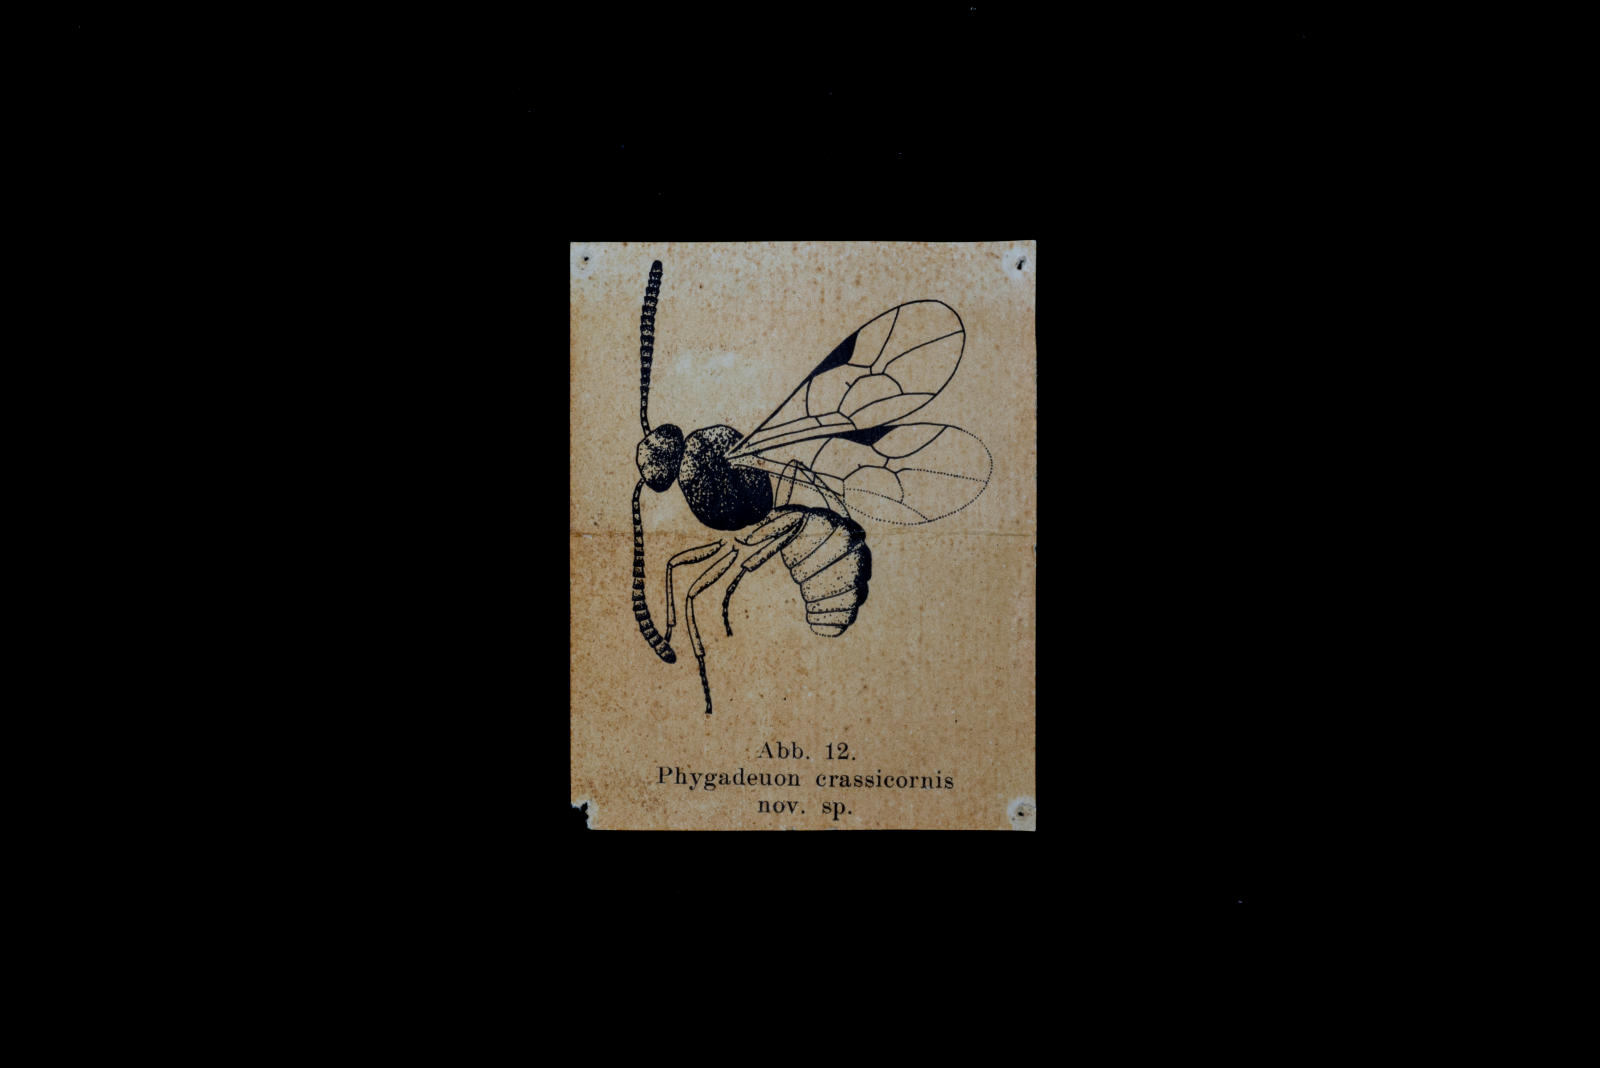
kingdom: Animalia
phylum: Arthropoda
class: Insecta
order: Hymenoptera
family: Ichneumonidae
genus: Phygadeuon
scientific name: Phygadeuon crassicornis
